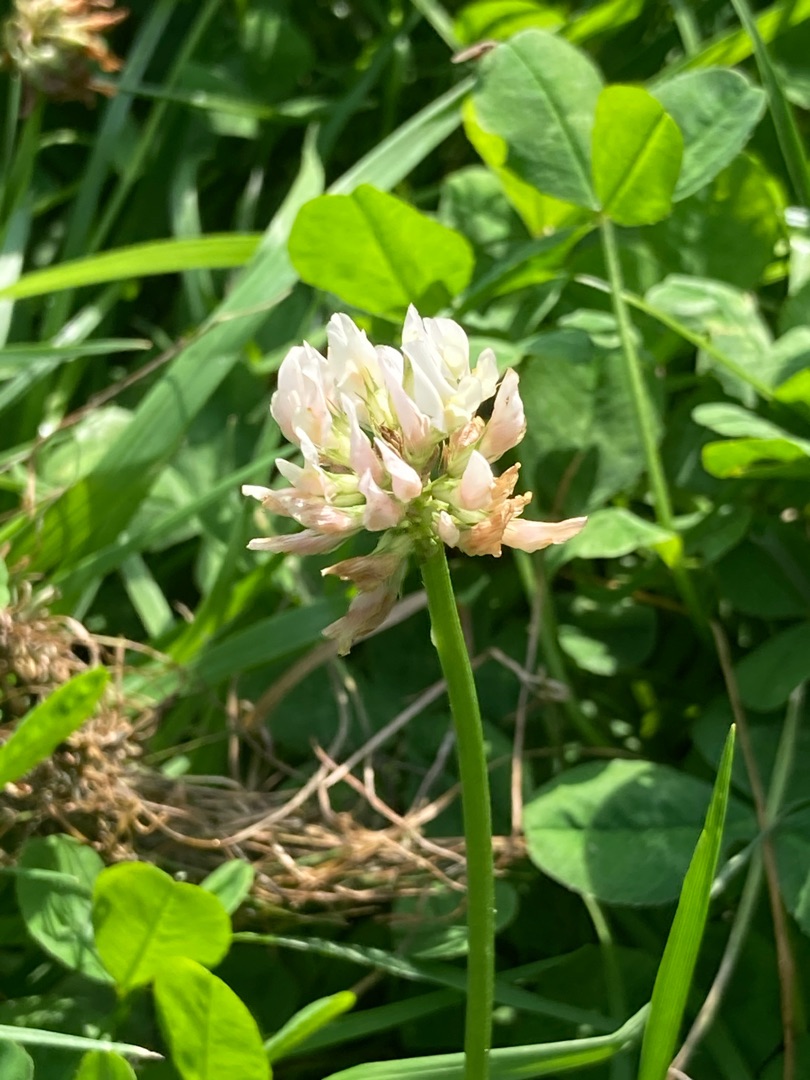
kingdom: Plantae
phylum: Tracheophyta
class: Magnoliopsida
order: Fabales
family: Fabaceae
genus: Trifolium
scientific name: Trifolium repens
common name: Hvid-kløver
